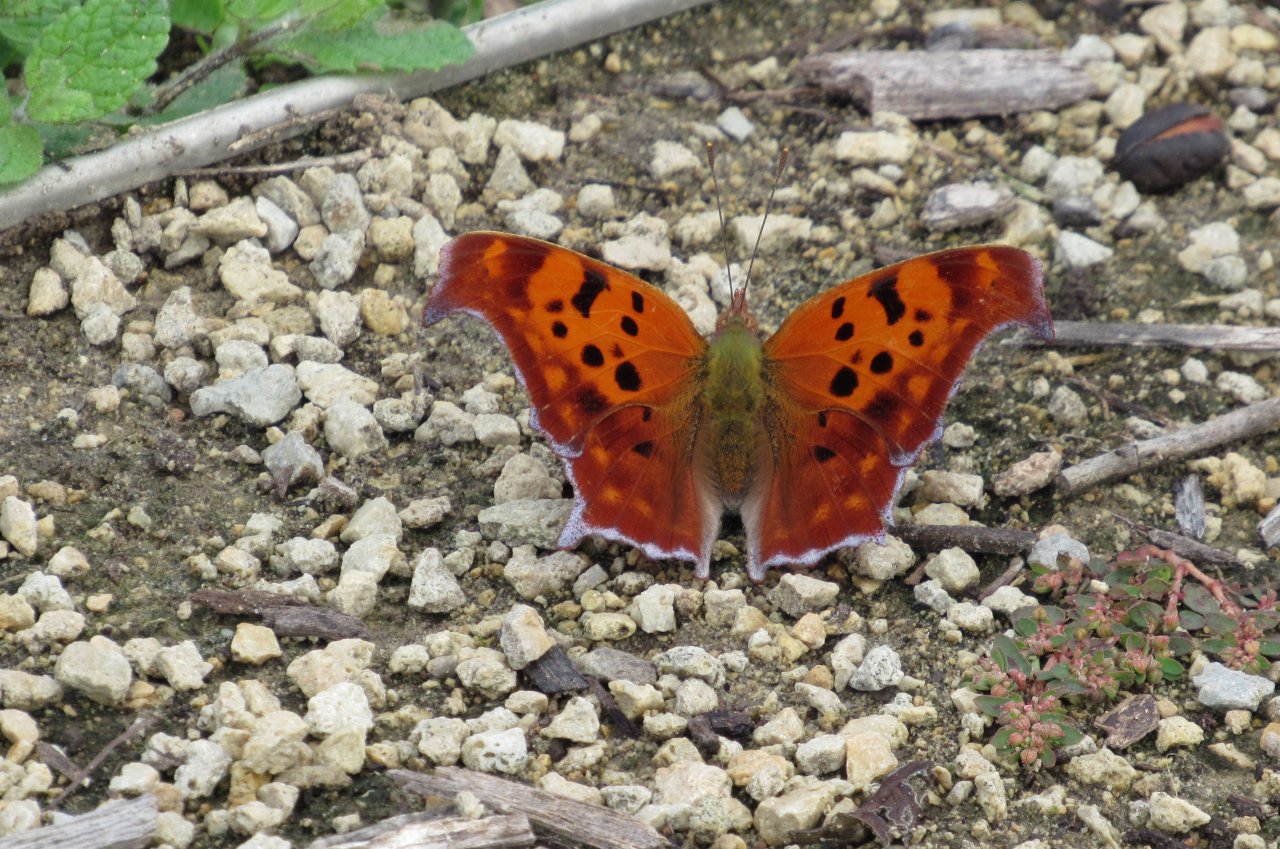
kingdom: Animalia
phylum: Arthropoda
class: Insecta
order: Lepidoptera
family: Nymphalidae
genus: Polygonia
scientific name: Polygonia interrogationis
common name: Question Mark
